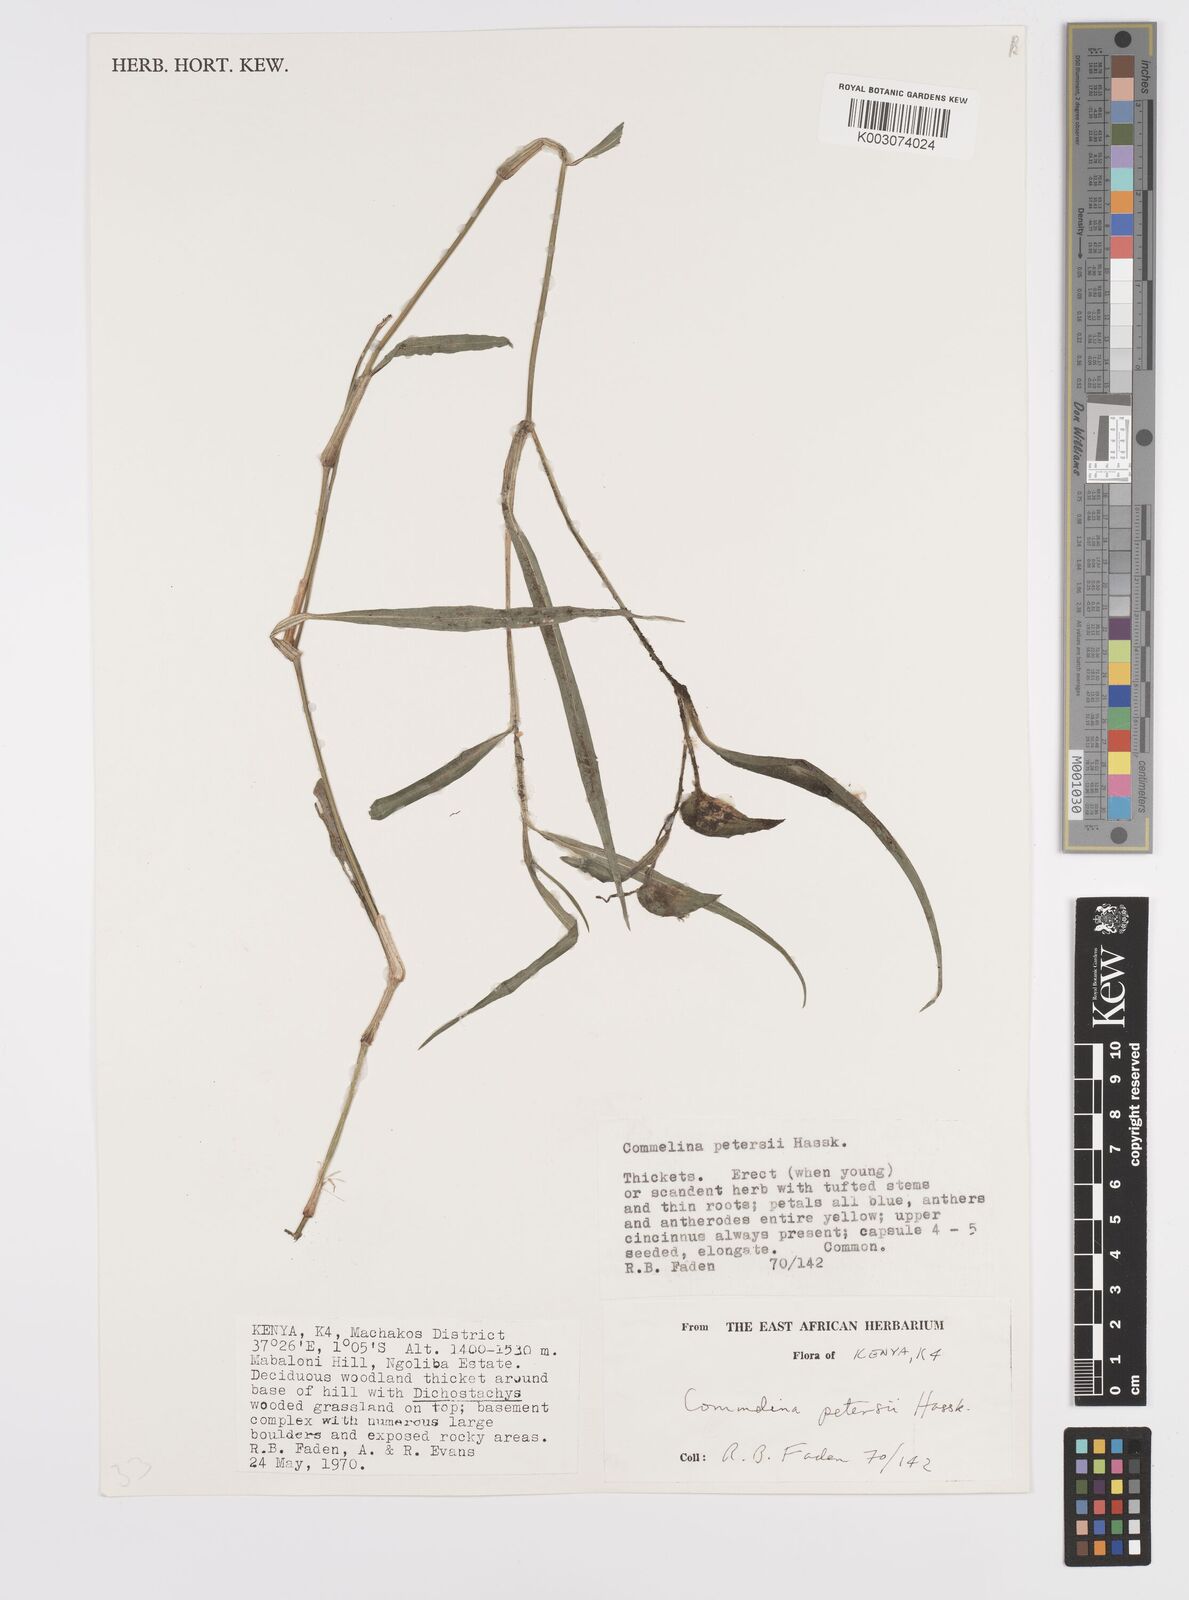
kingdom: Plantae
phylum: Tracheophyta
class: Liliopsida
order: Commelinales
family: Commelinaceae
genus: Commelina
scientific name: Commelina petersii
